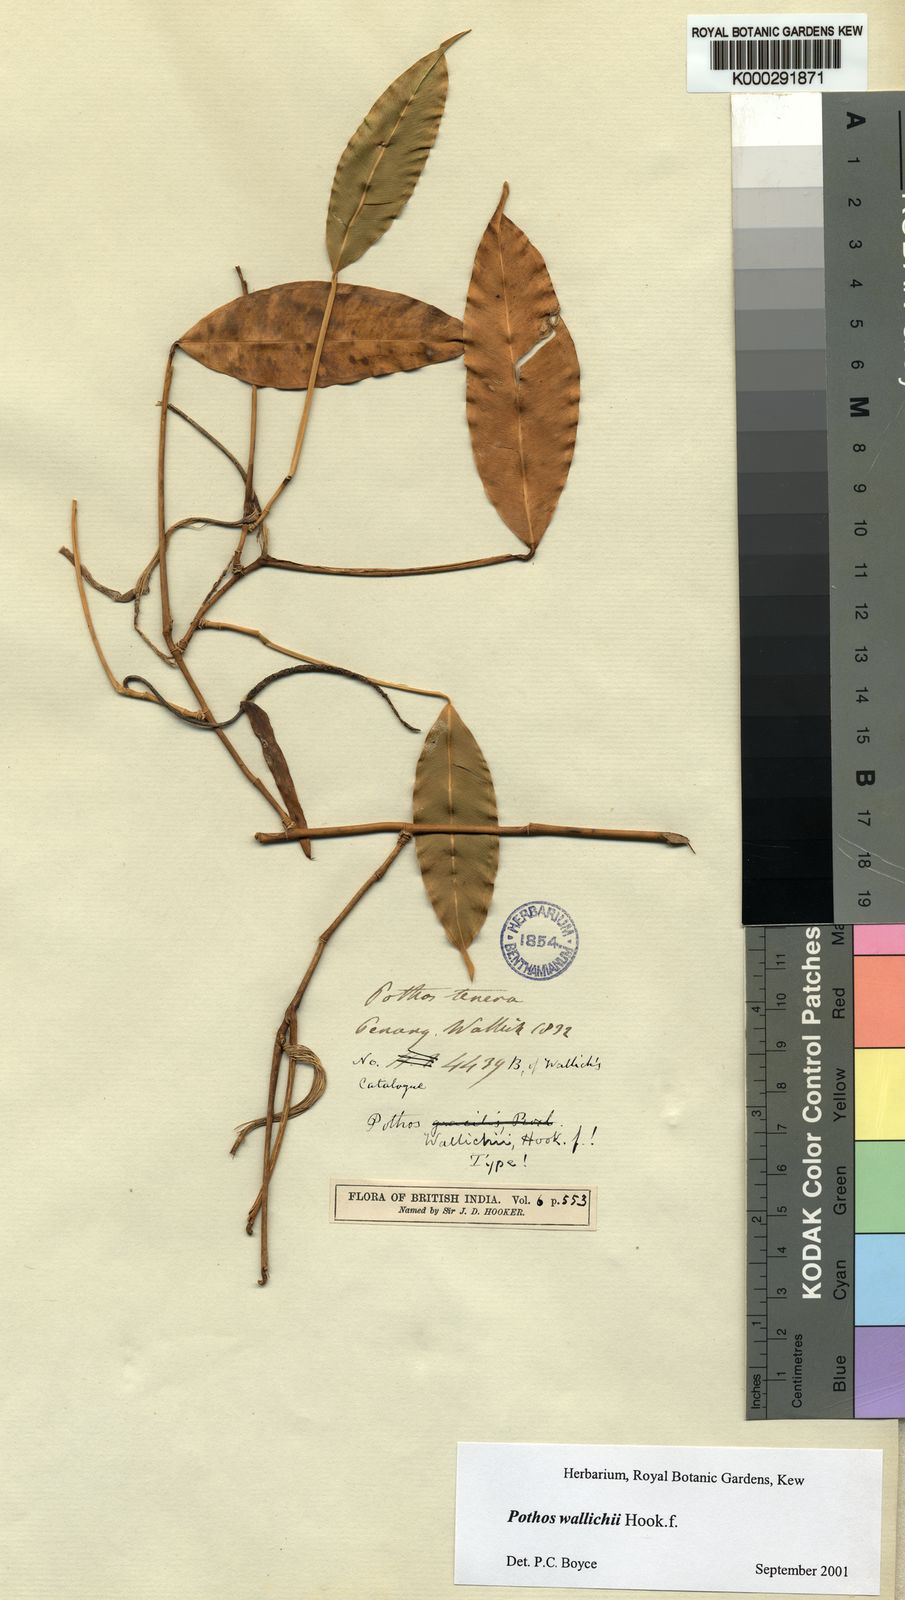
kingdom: Plantae
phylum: Tracheophyta
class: Liliopsida
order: Alismatales
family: Araceae
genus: Pothos
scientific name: Pothos wallichii
